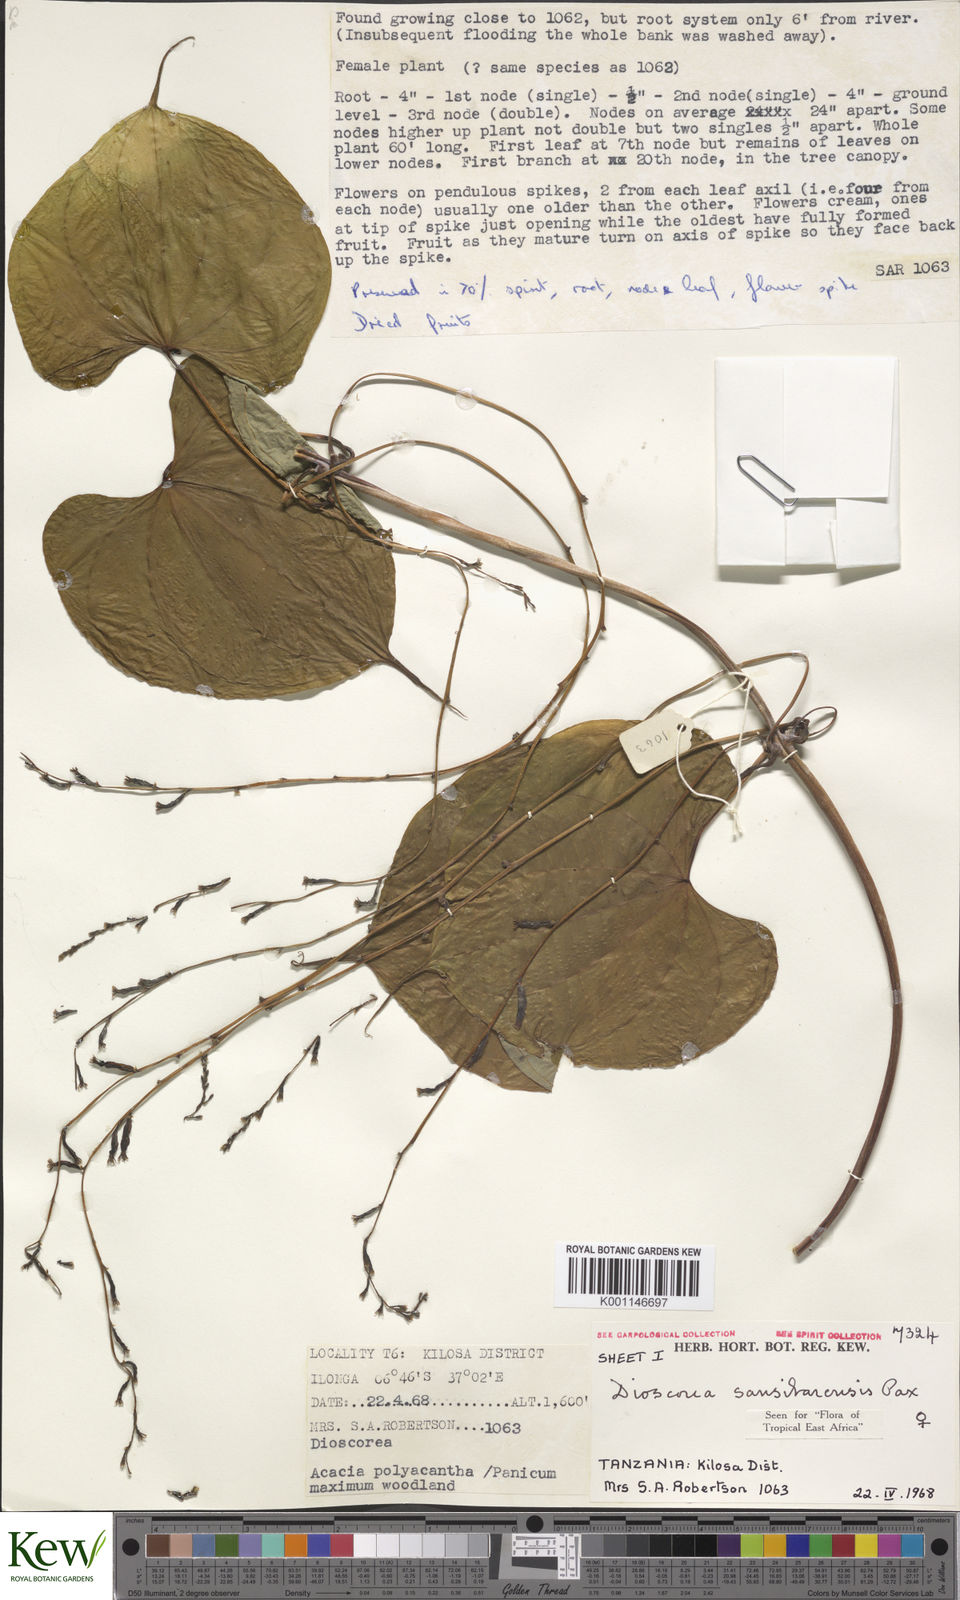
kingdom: Plantae
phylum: Tracheophyta
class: Liliopsida
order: Dioscoreales
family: Dioscoreaceae
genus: Dioscorea
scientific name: Dioscorea sansibarensis
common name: Zanzibar yam
